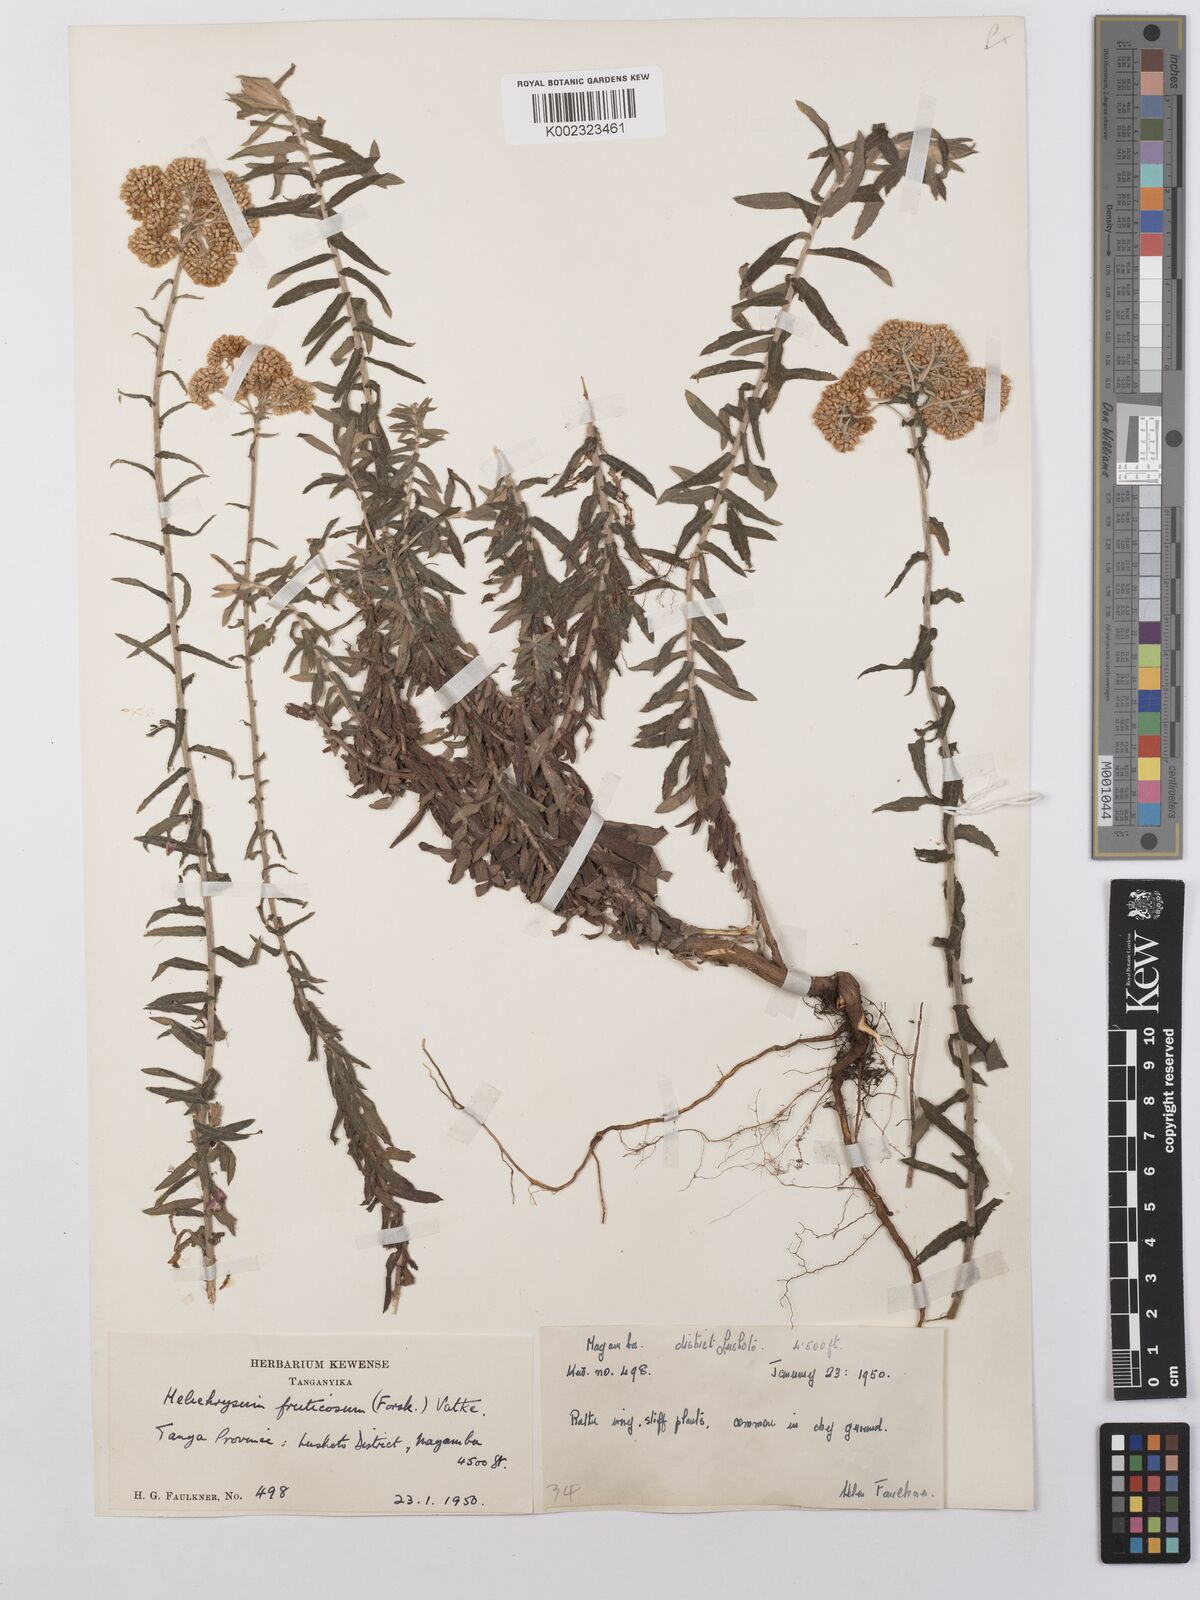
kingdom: Plantae
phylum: Tracheophyta
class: Magnoliopsida
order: Asterales
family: Asteraceae
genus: Helichrysum
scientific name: Helichrysum forskahlii
